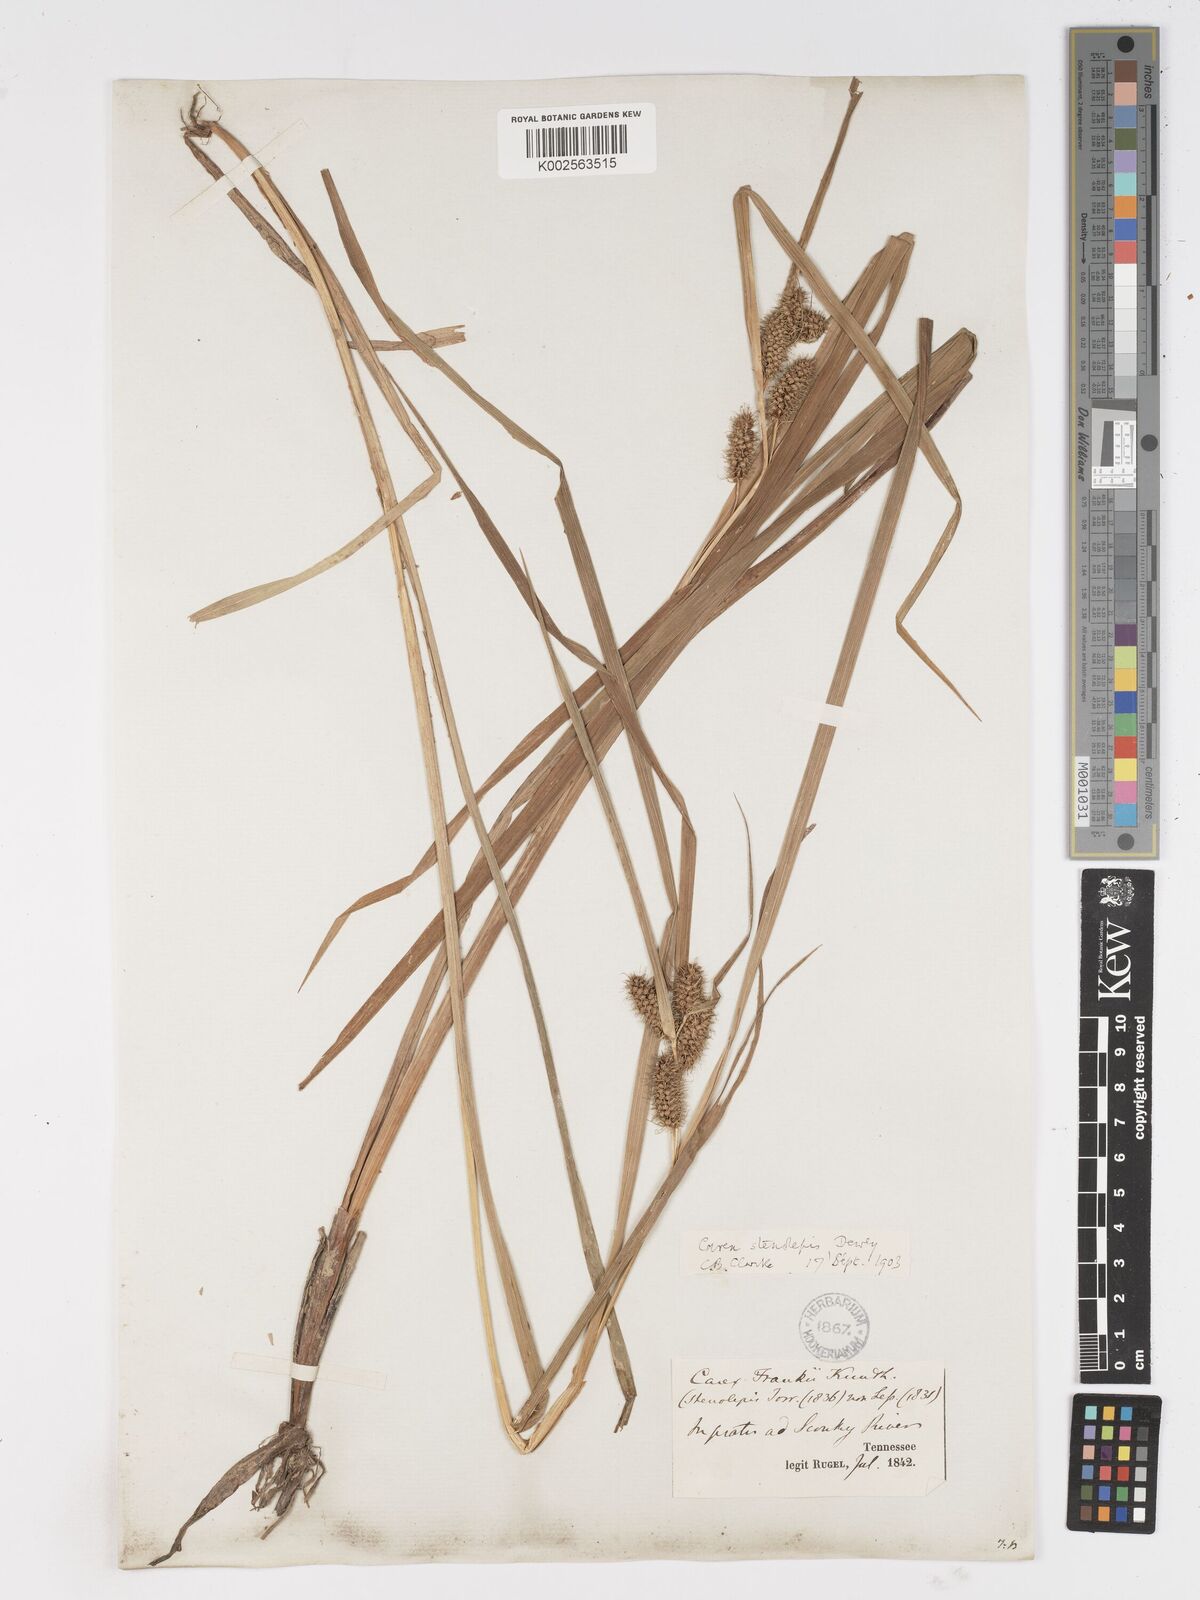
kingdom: Plantae
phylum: Tracheophyta
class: Liliopsida
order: Poales
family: Cyperaceae
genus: Carex
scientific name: Carex frankii
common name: Frank's sedge
